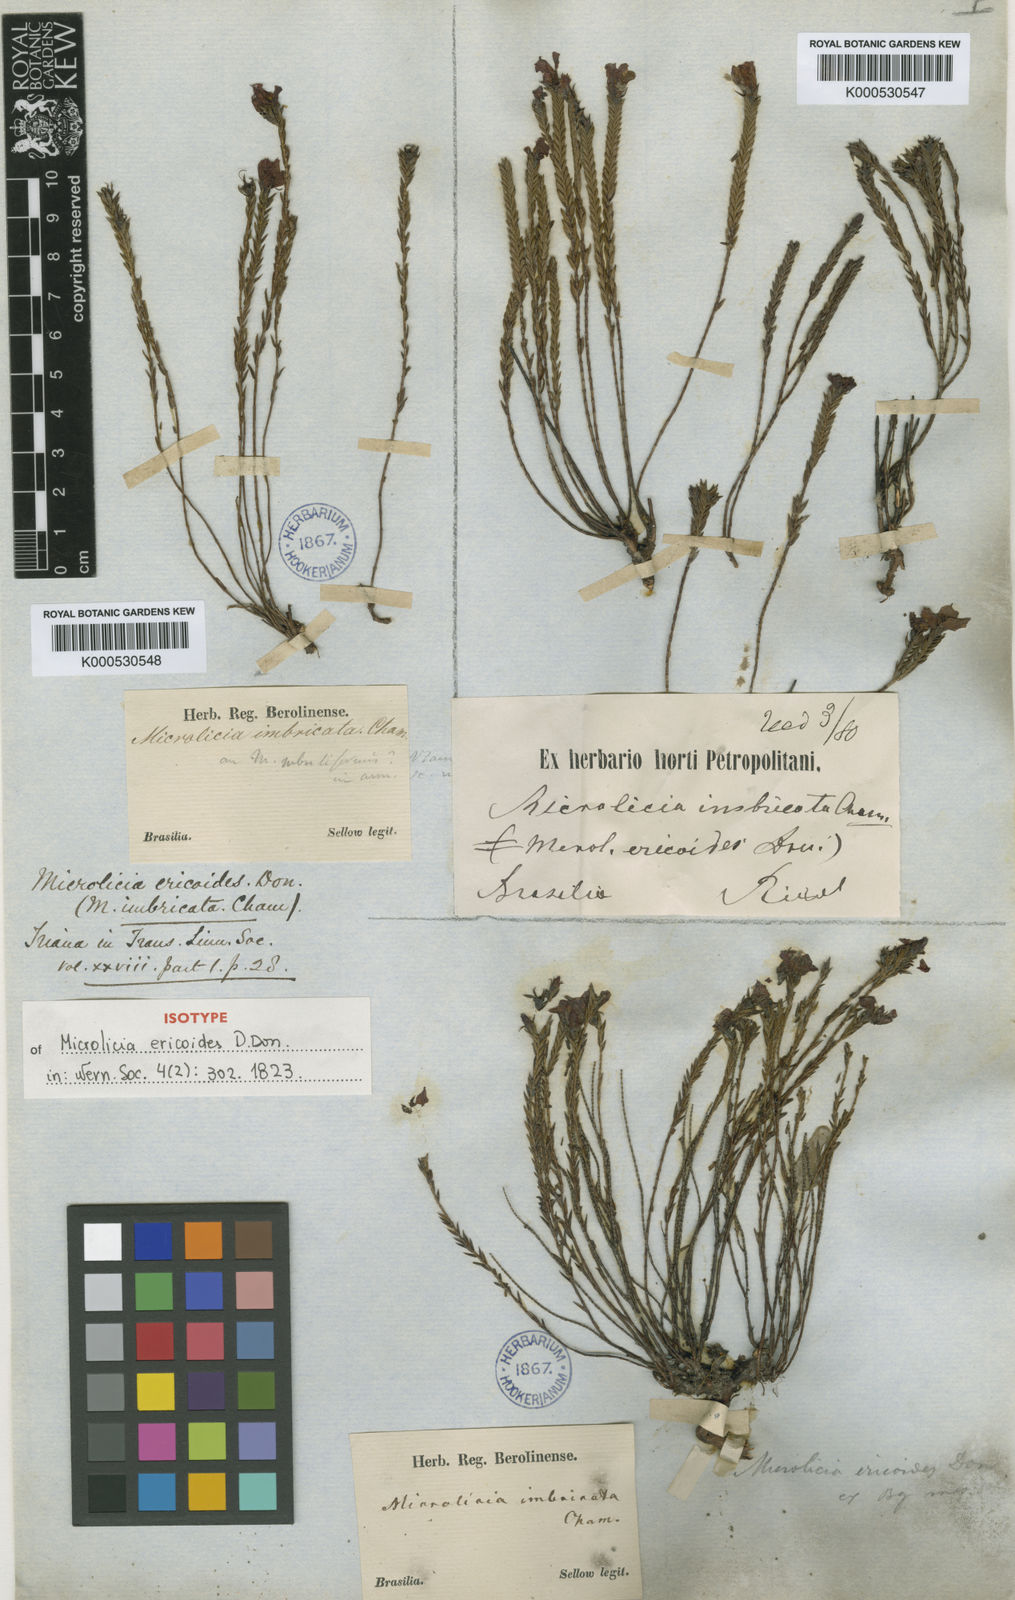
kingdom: Plantae
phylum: Tracheophyta
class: Magnoliopsida
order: Myrtales
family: Melastomataceae
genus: Microlicia
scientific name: Microlicia ericoides
